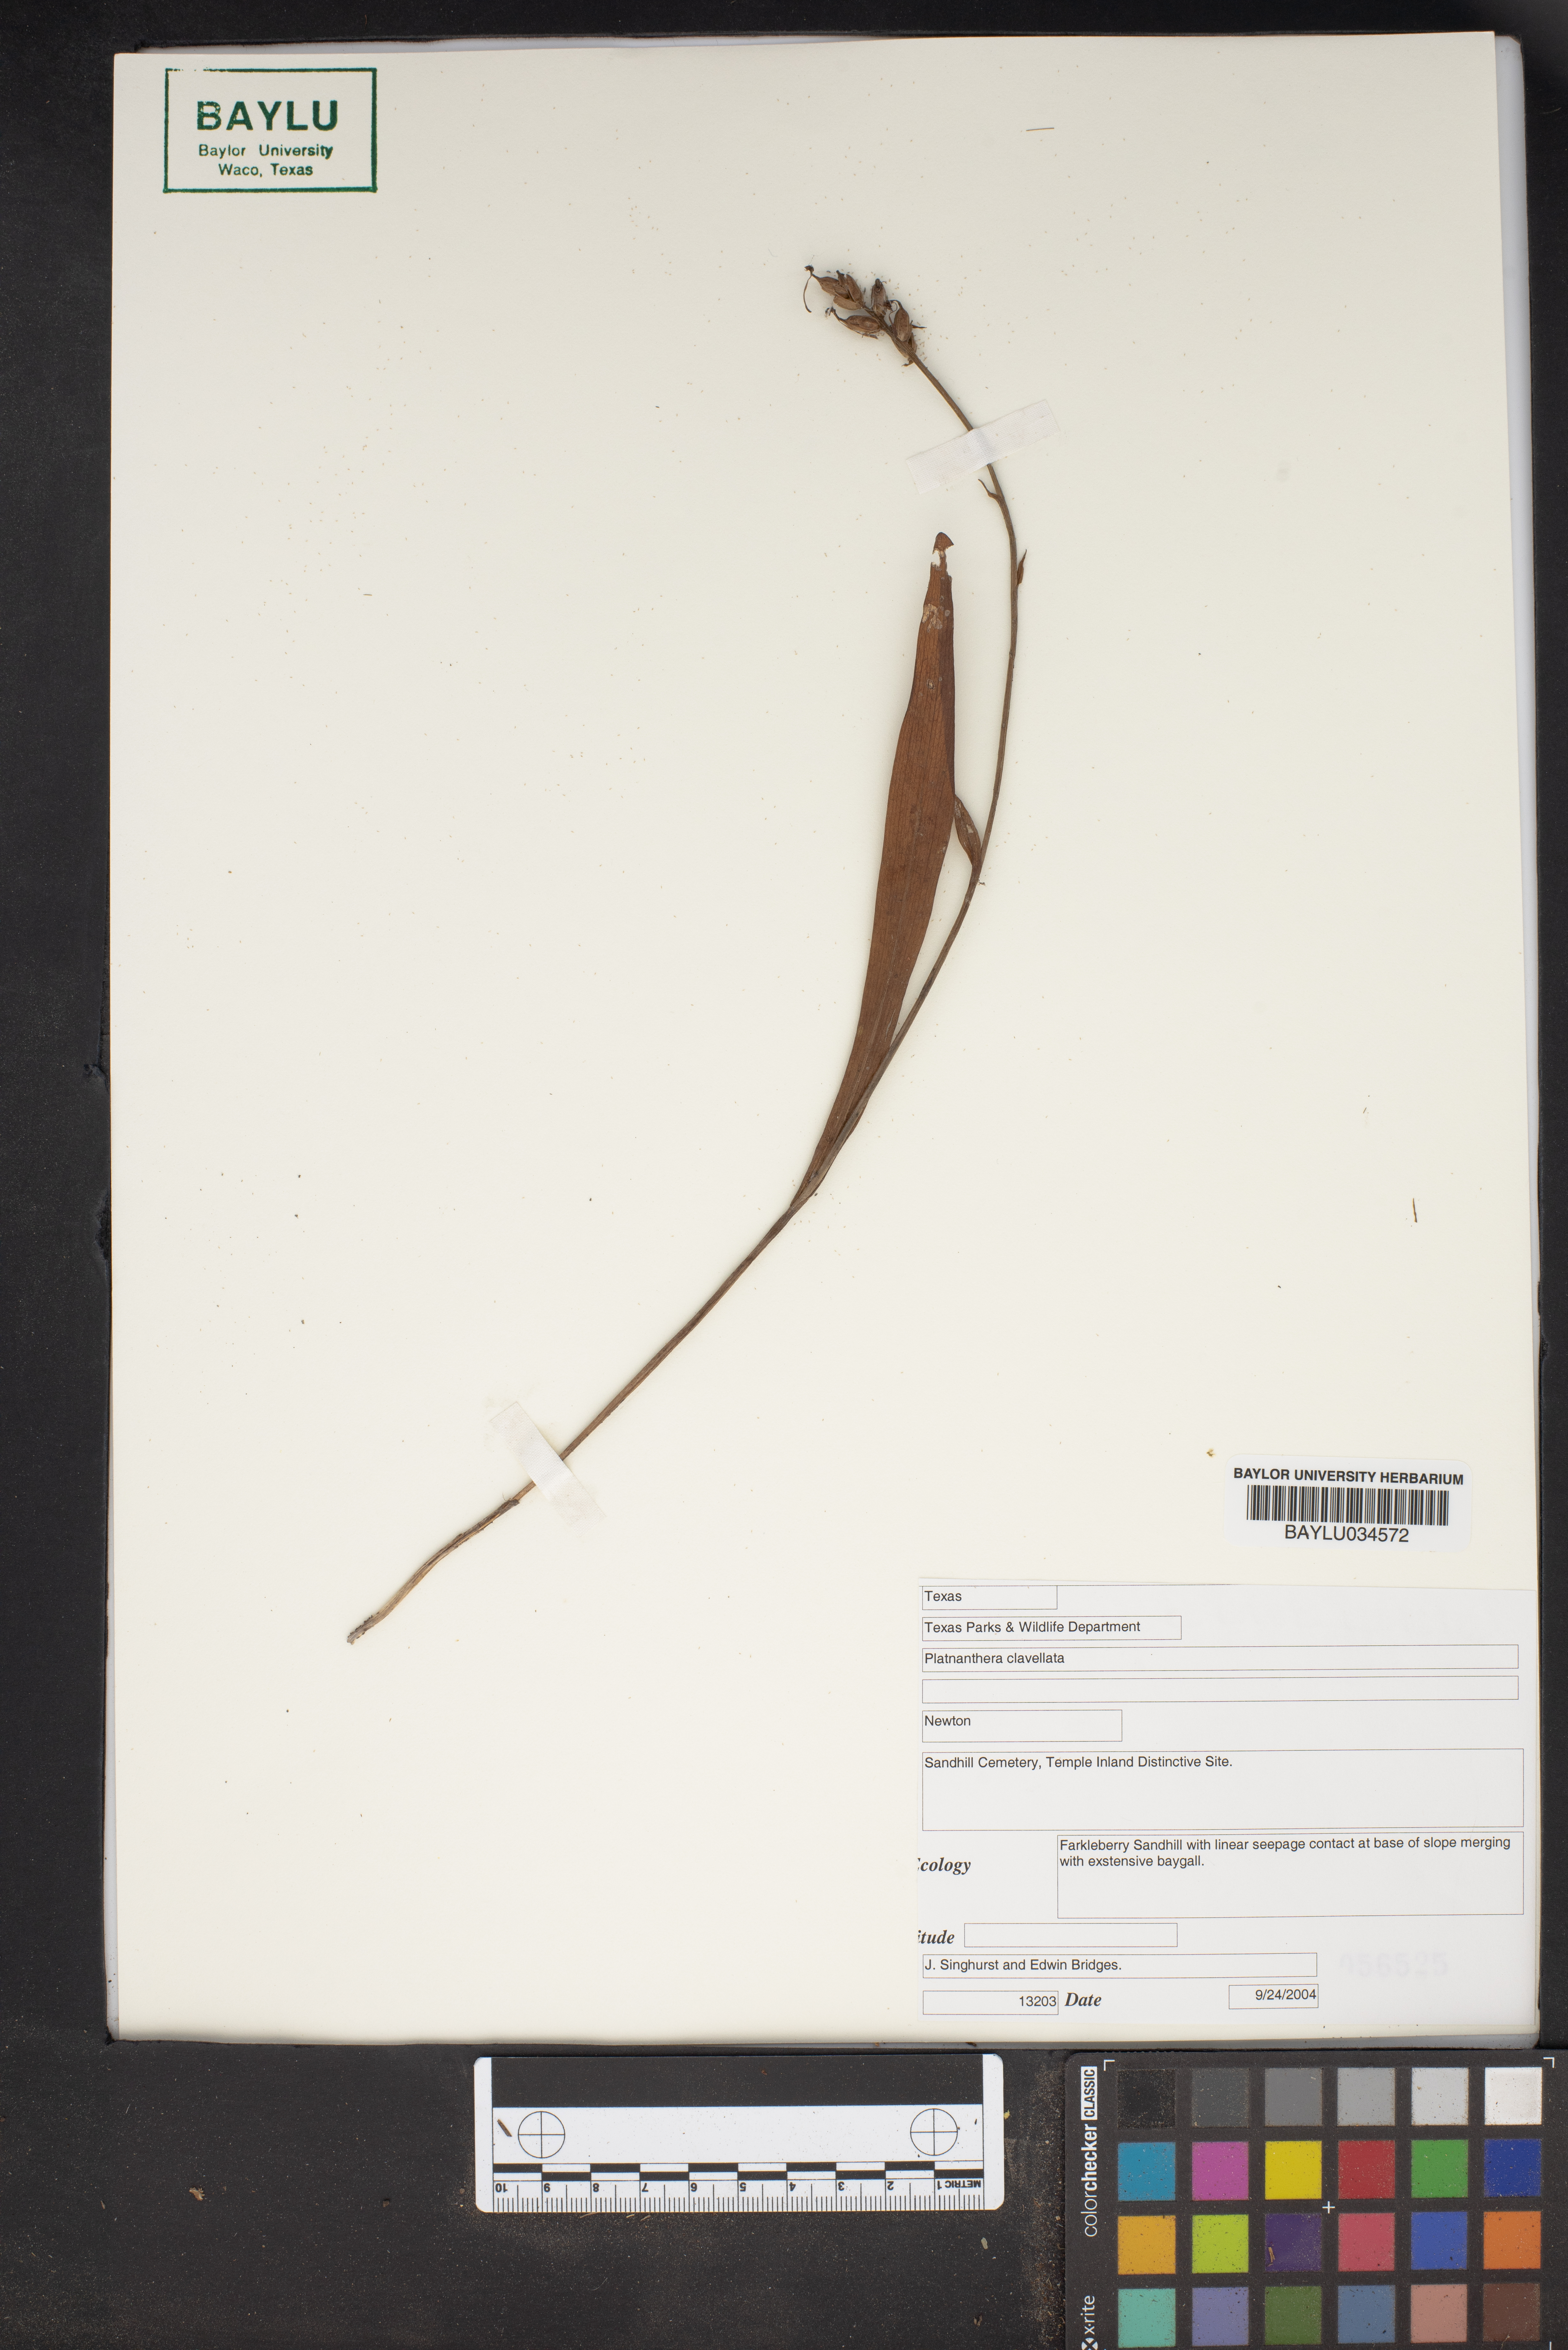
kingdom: Plantae
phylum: Tracheophyta
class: Liliopsida
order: Asparagales
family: Orchidaceae
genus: Platanthera
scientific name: Platanthera clavellata
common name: Club-spur orchid
